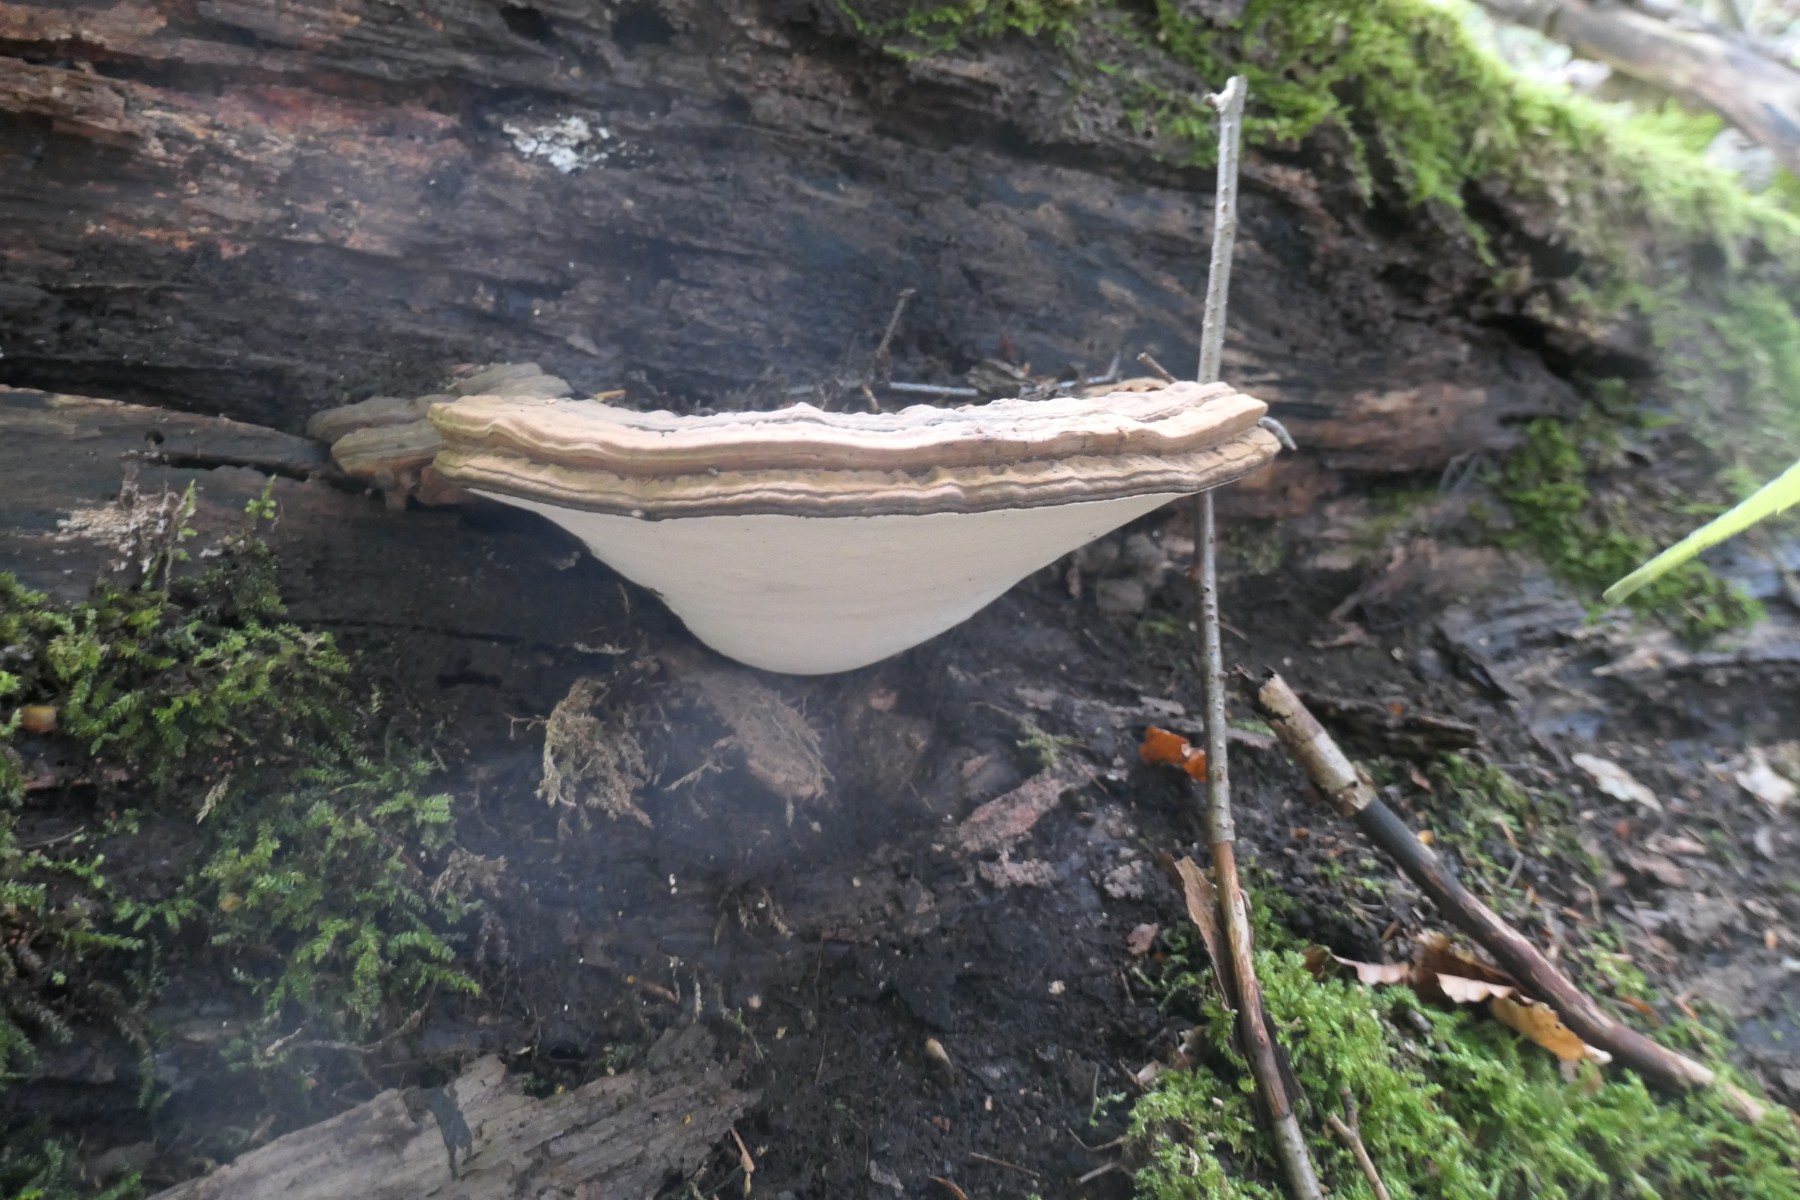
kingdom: Fungi
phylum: Basidiomycota
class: Agaricomycetes
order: Polyporales
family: Polyporaceae
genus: Ganoderma
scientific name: Ganoderma applanatum
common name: flad lakporesvamp
